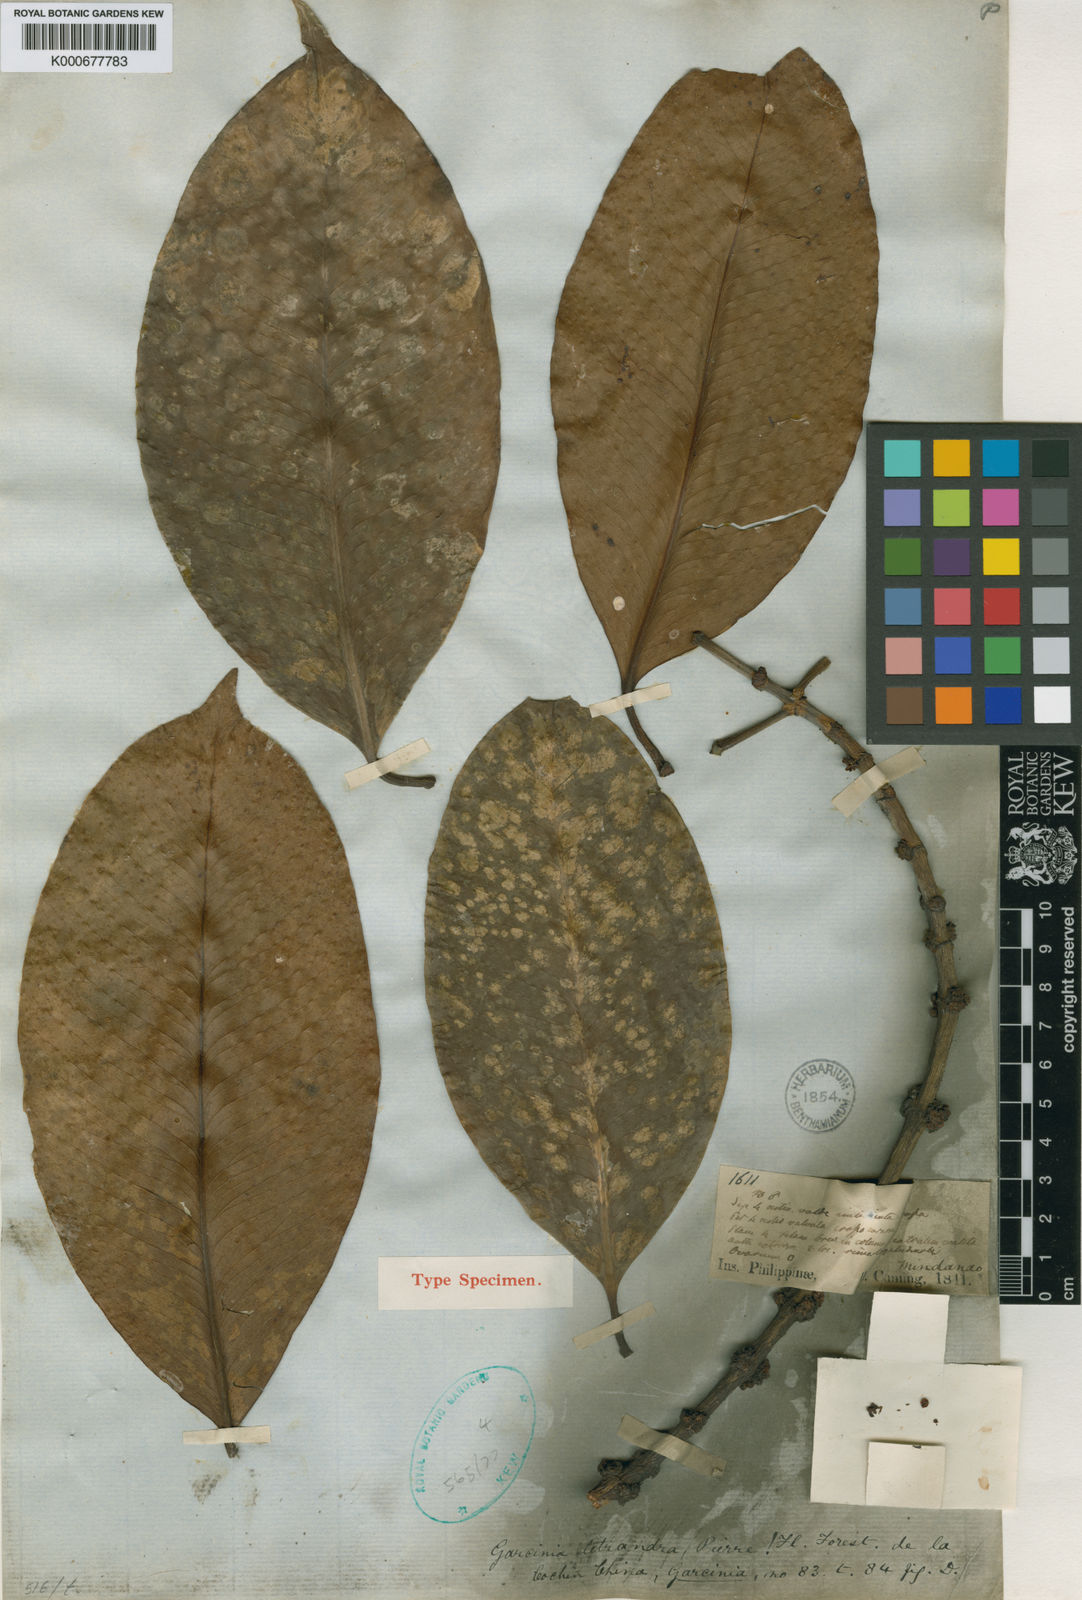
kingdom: Plantae
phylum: Tracheophyta
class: Magnoliopsida
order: Malpighiales
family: Clusiaceae
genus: Garcinia
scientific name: Garcinia tetrandra
